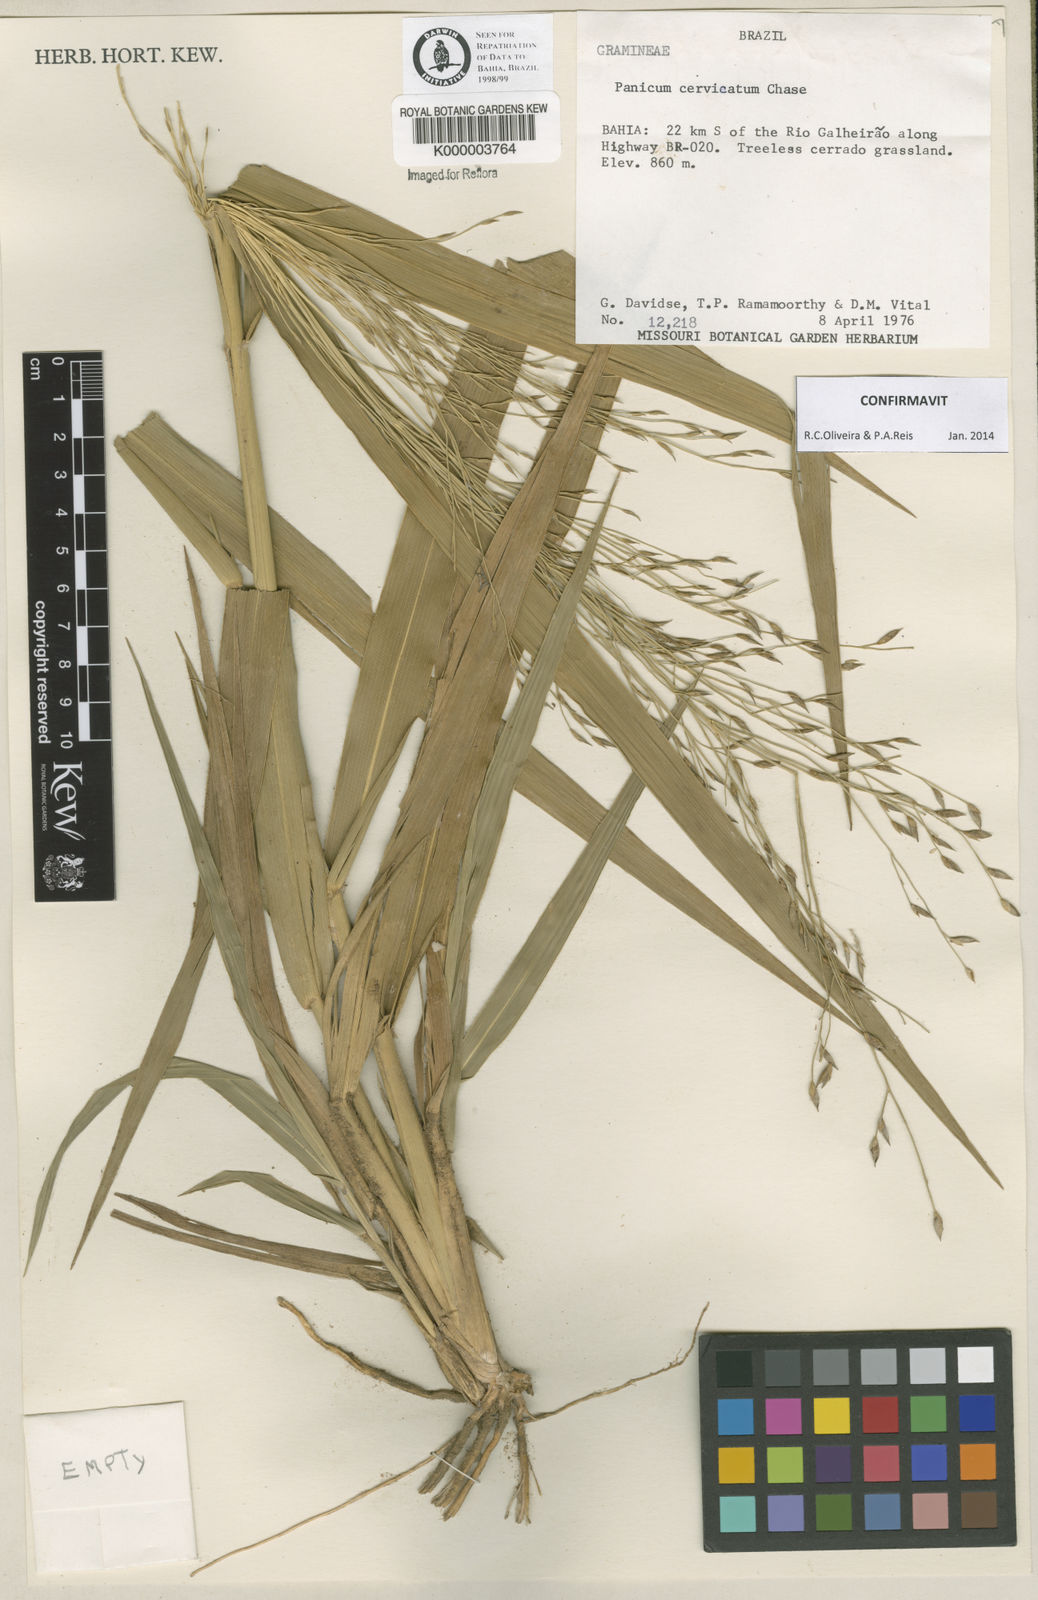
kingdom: Plantae
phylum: Tracheophyta
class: Liliopsida
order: Poales
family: Poaceae
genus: Panicum
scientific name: Panicum cervicatum
